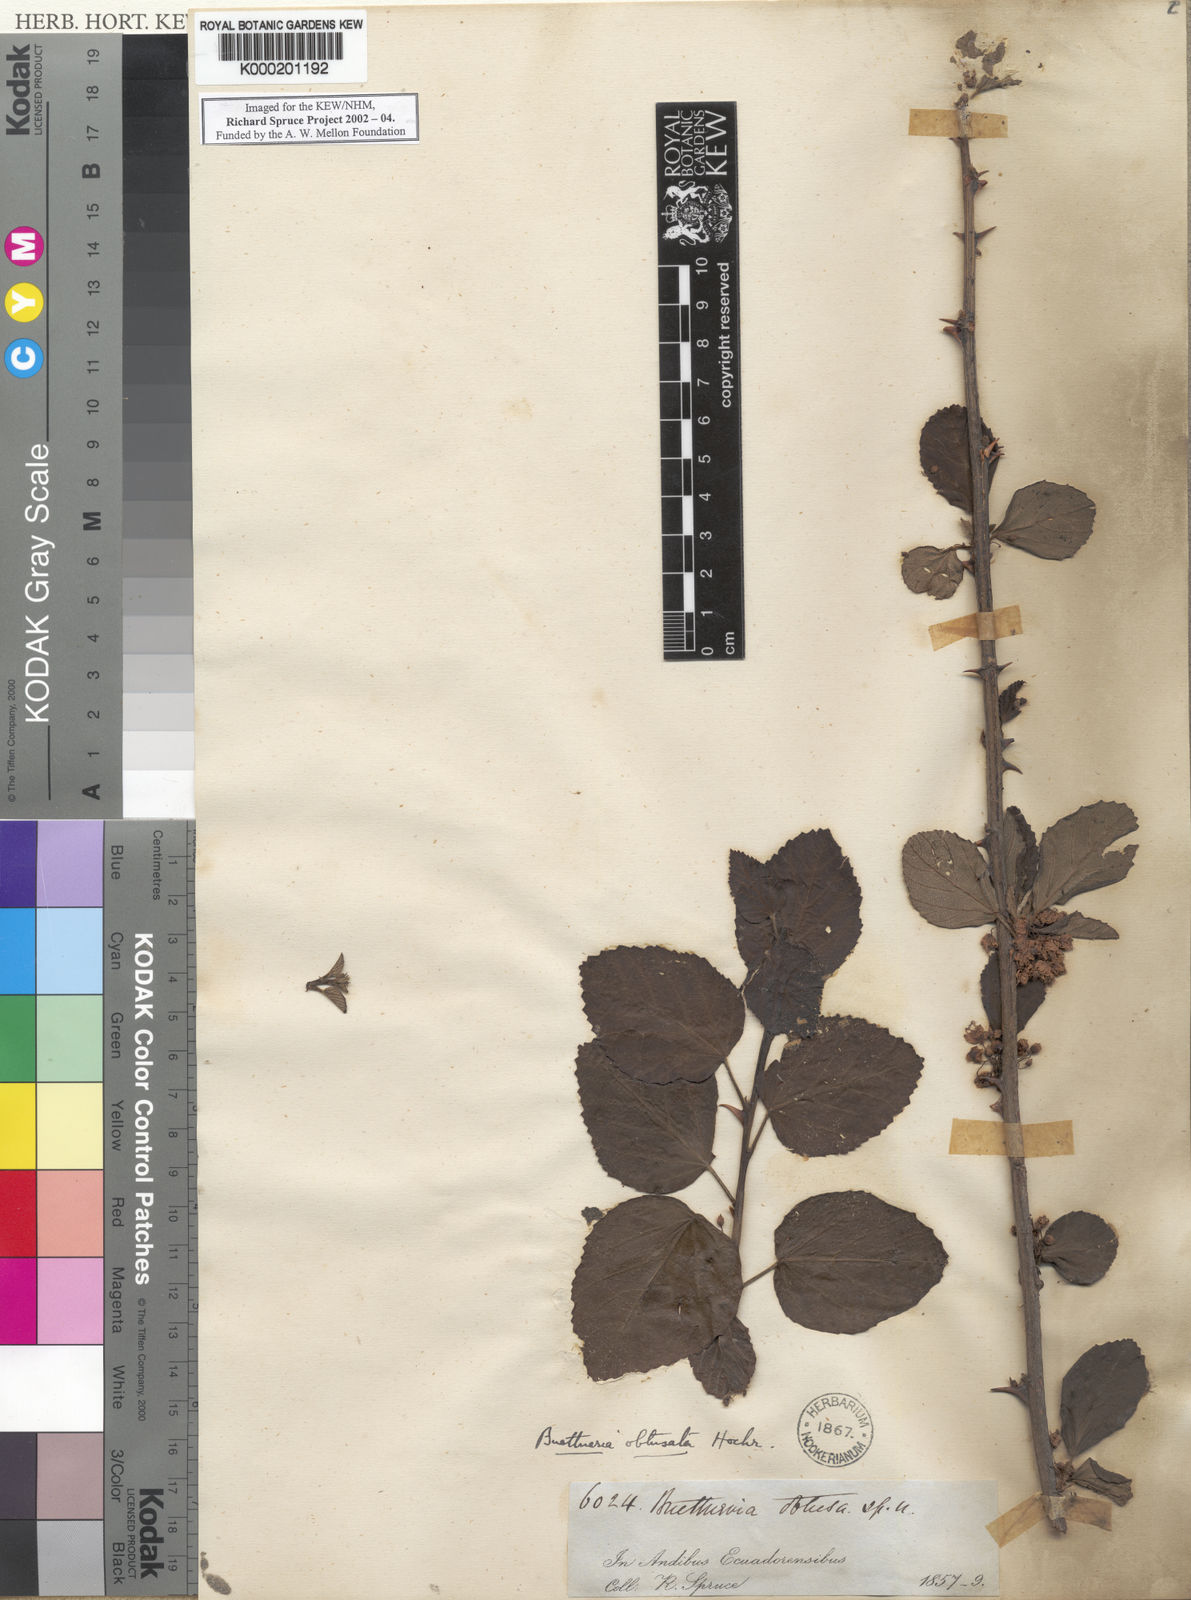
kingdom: Plantae
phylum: Tracheophyta
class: Magnoliopsida
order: Malvales
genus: Buettneria
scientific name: Buettneria
